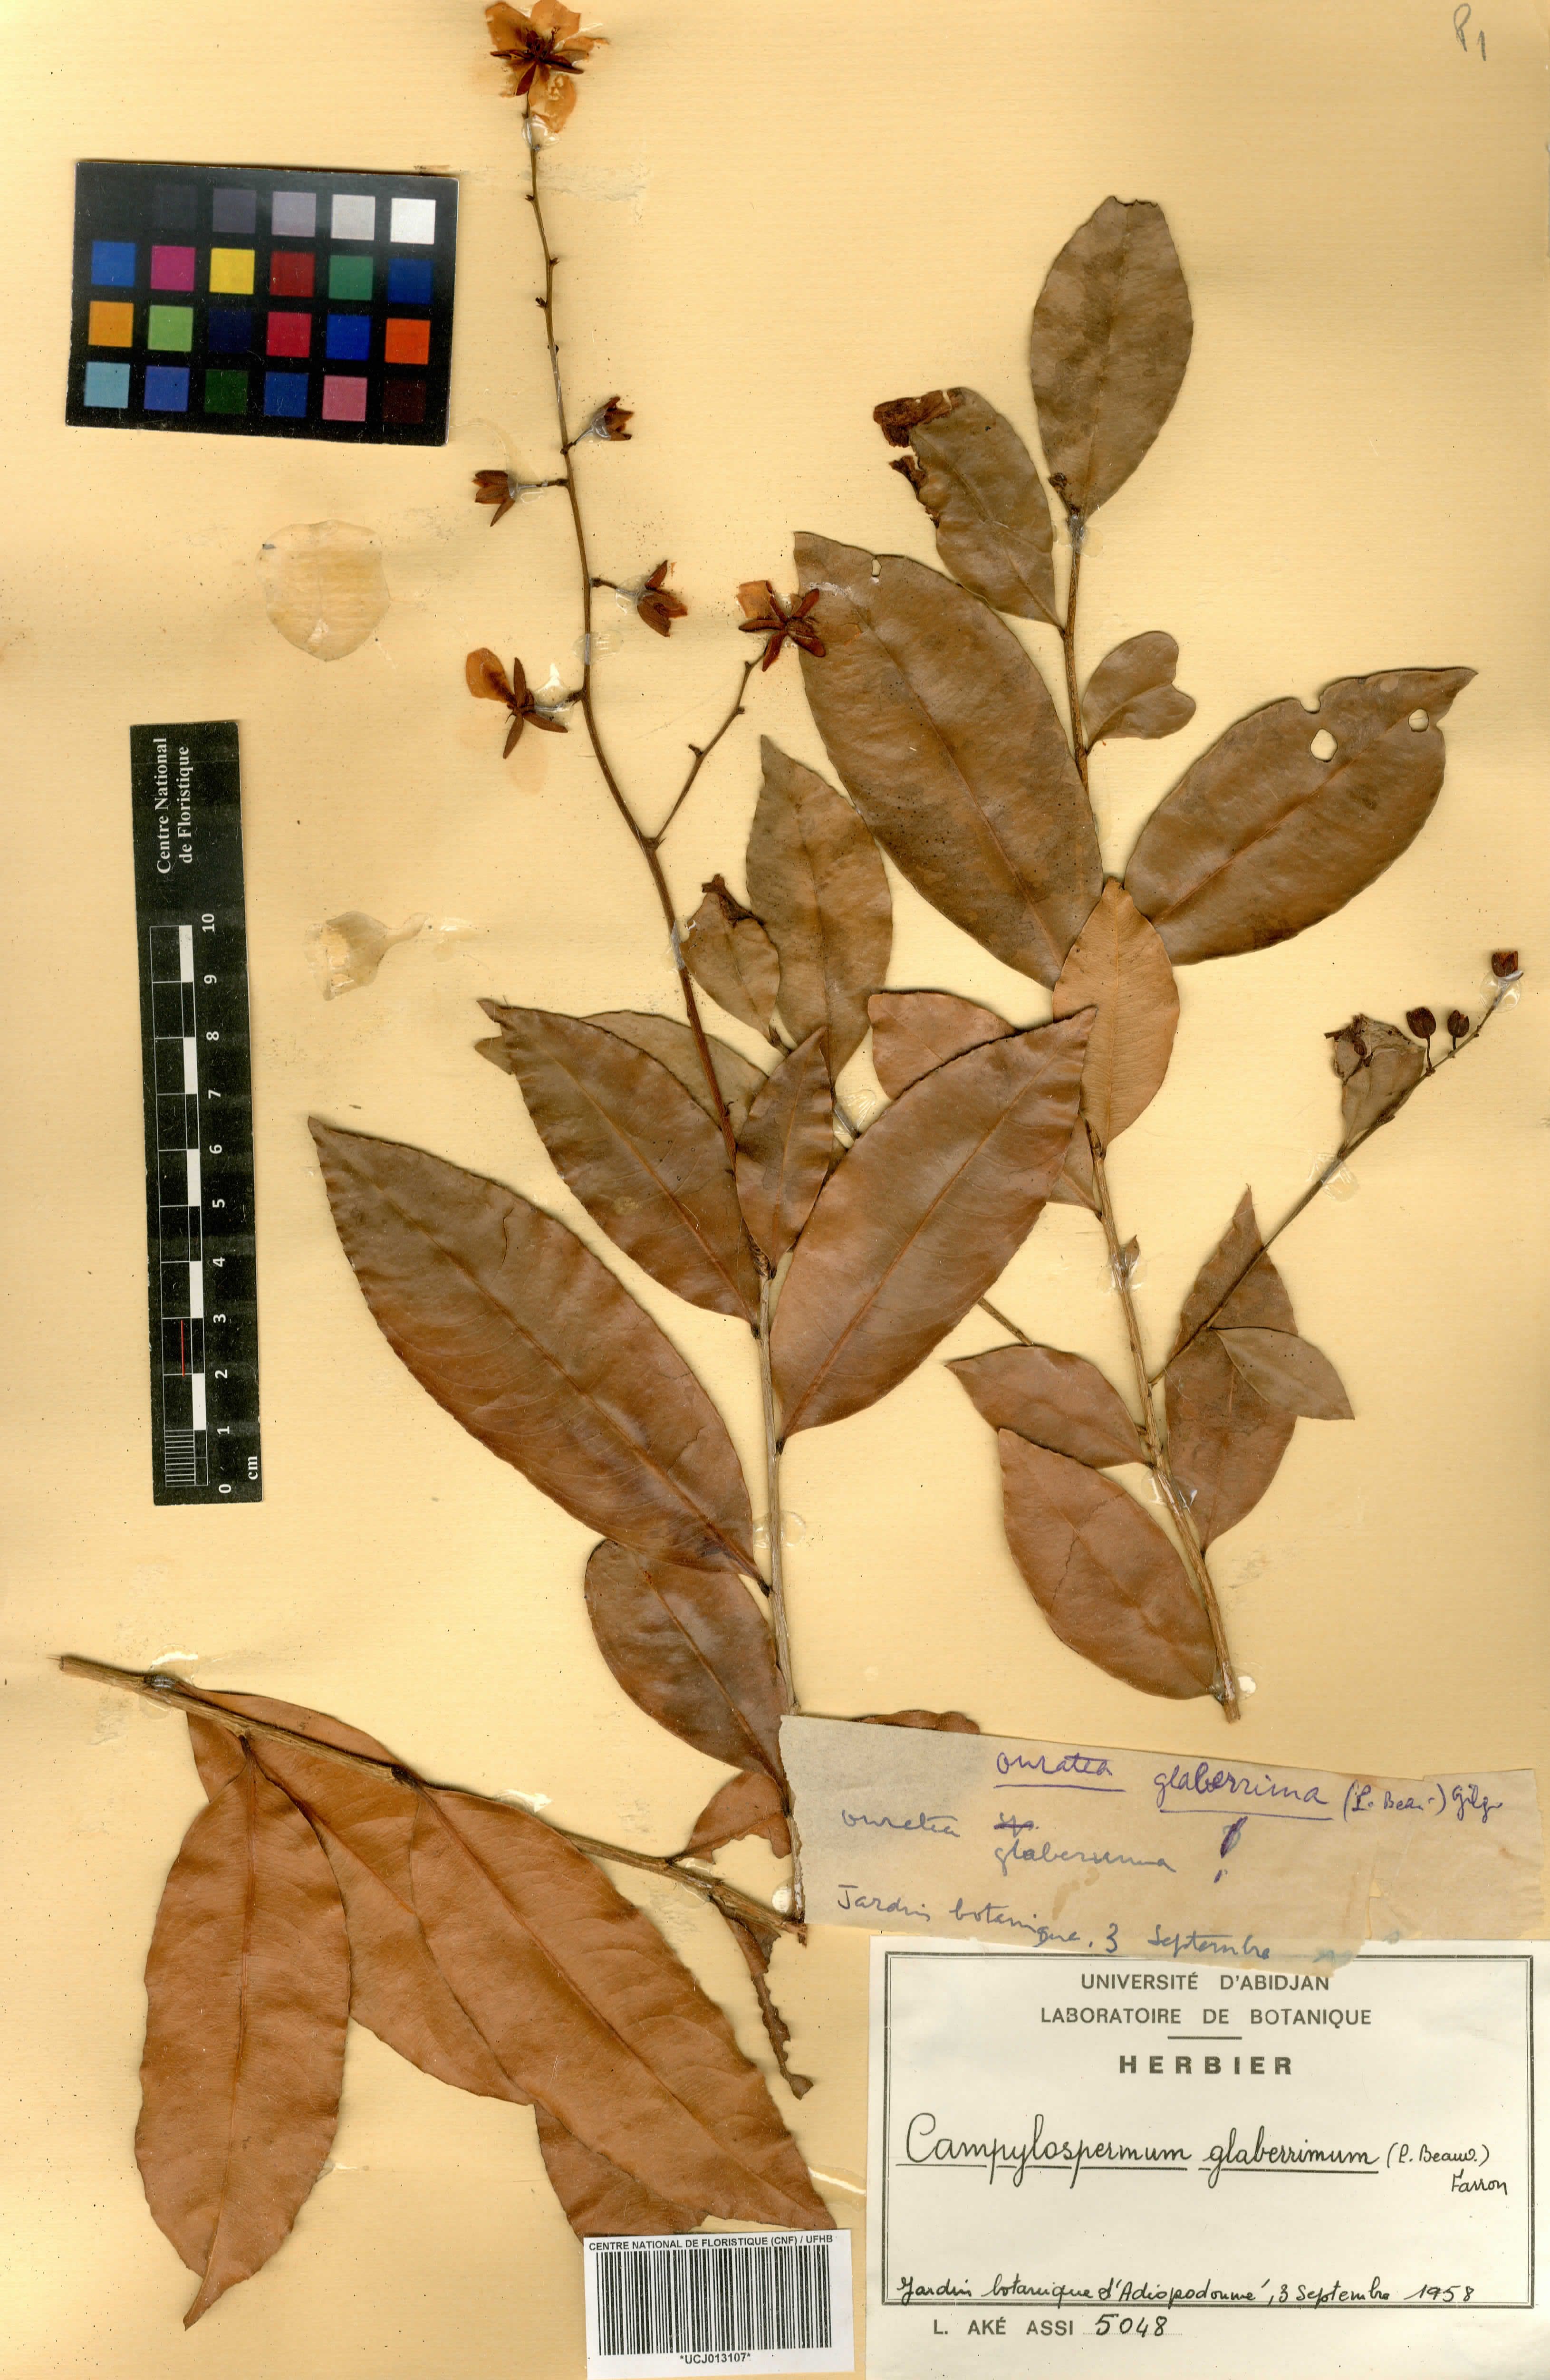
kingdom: Plantae
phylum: Tracheophyta
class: Magnoliopsida
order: Malpighiales
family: Ochnaceae
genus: Campylospermum
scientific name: Campylospermum glaberrimum
